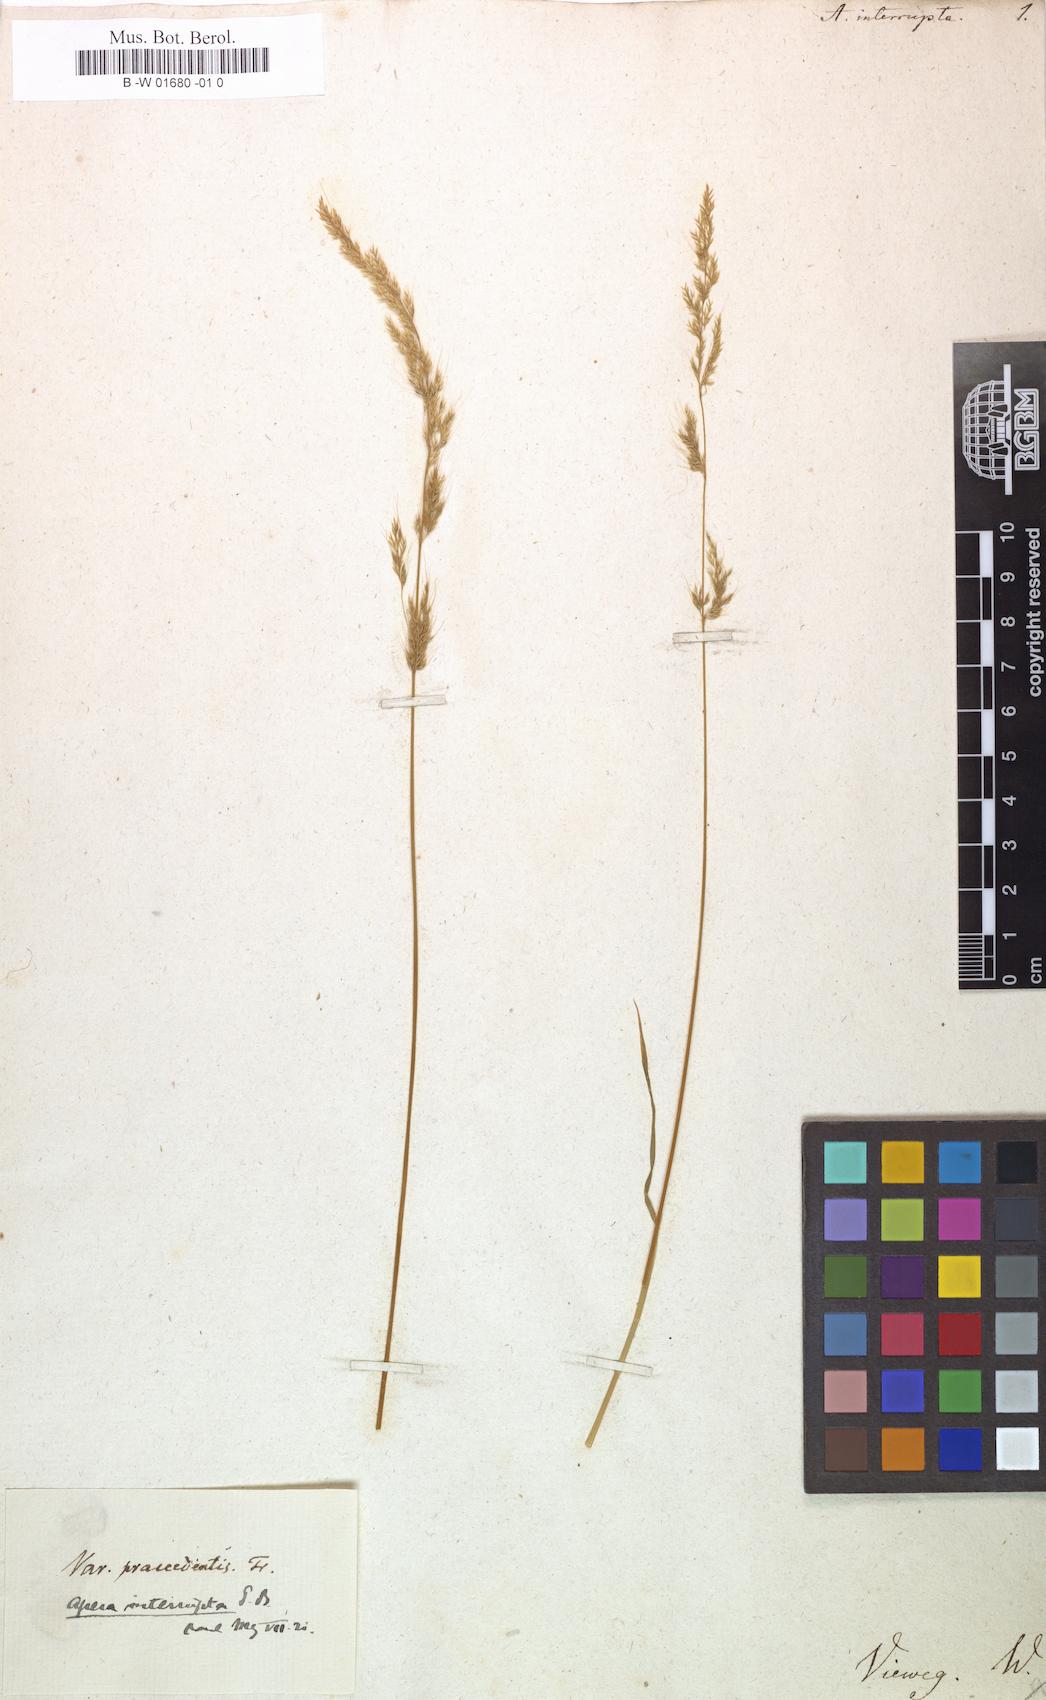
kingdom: Plantae
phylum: Tracheophyta
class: Liliopsida
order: Poales
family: Poaceae
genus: Apera
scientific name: Apera interrupta
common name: Dense silky-bent
